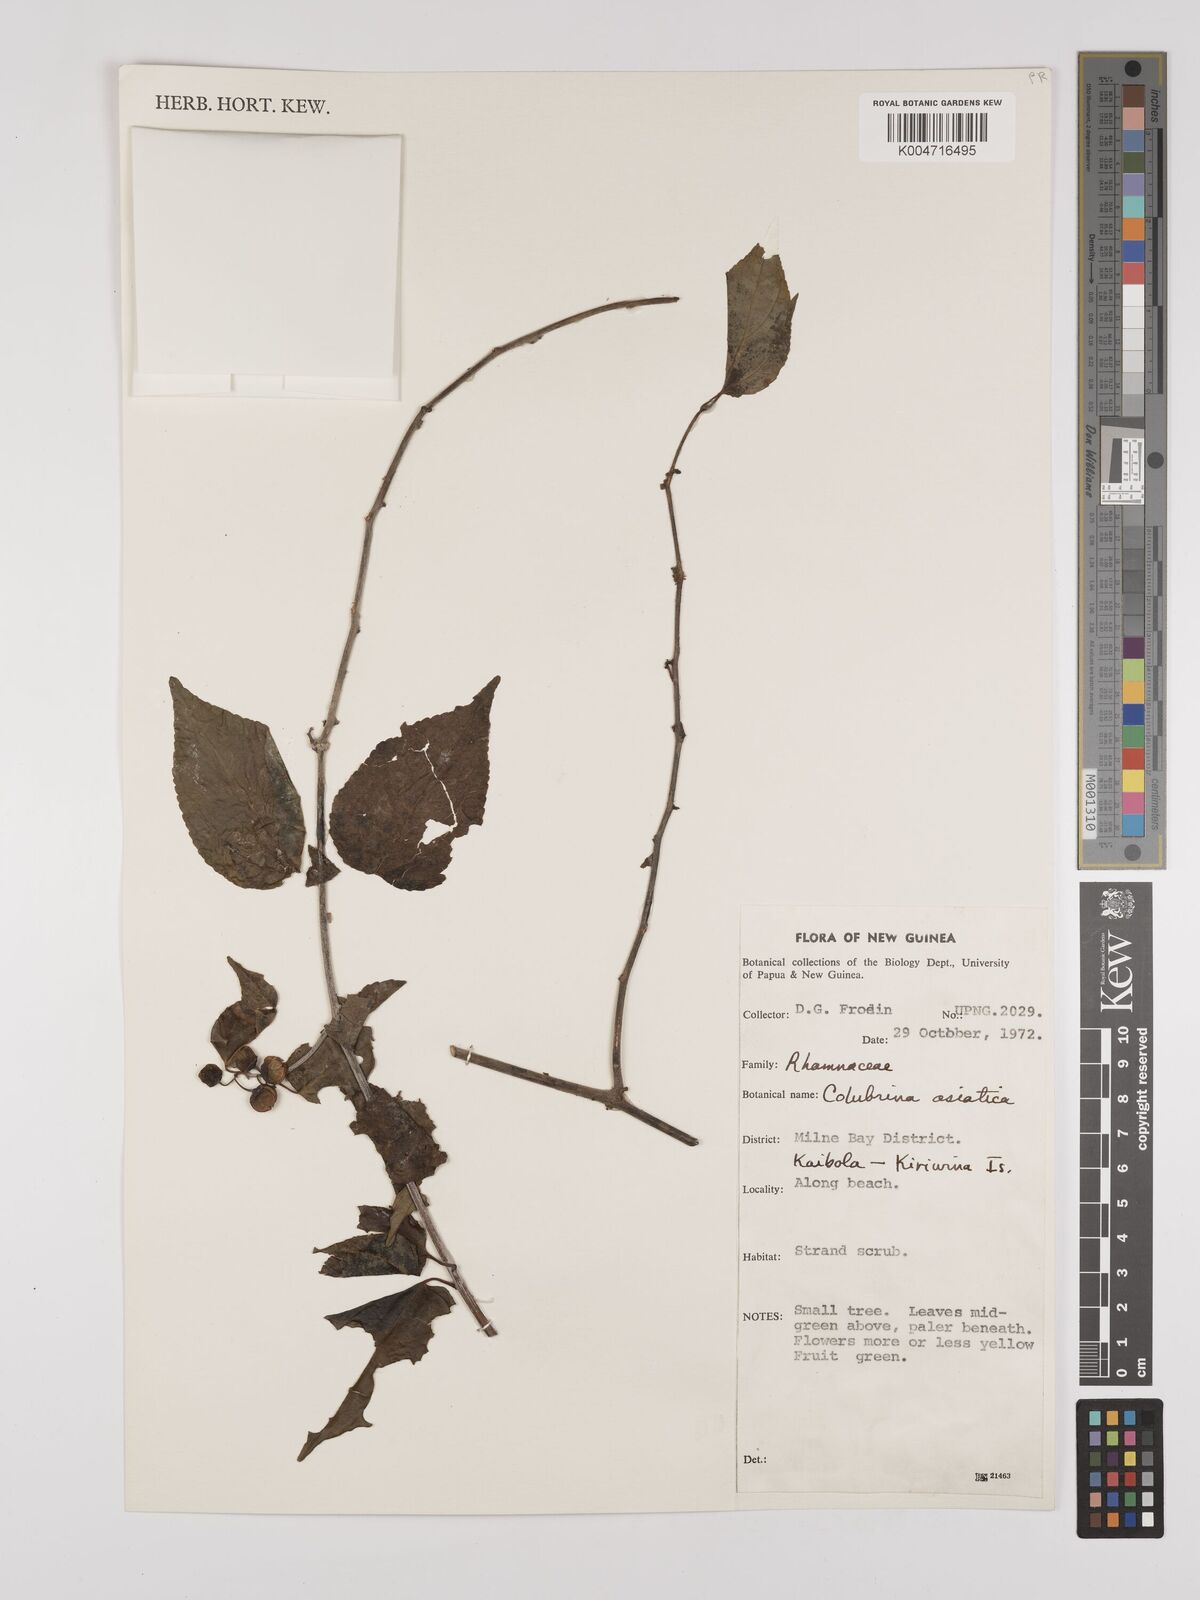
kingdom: Plantae
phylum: Tracheophyta
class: Magnoliopsida
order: Rosales
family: Rhamnaceae
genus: Colubrina
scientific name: Colubrina asiatica
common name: Asian nakedwood
